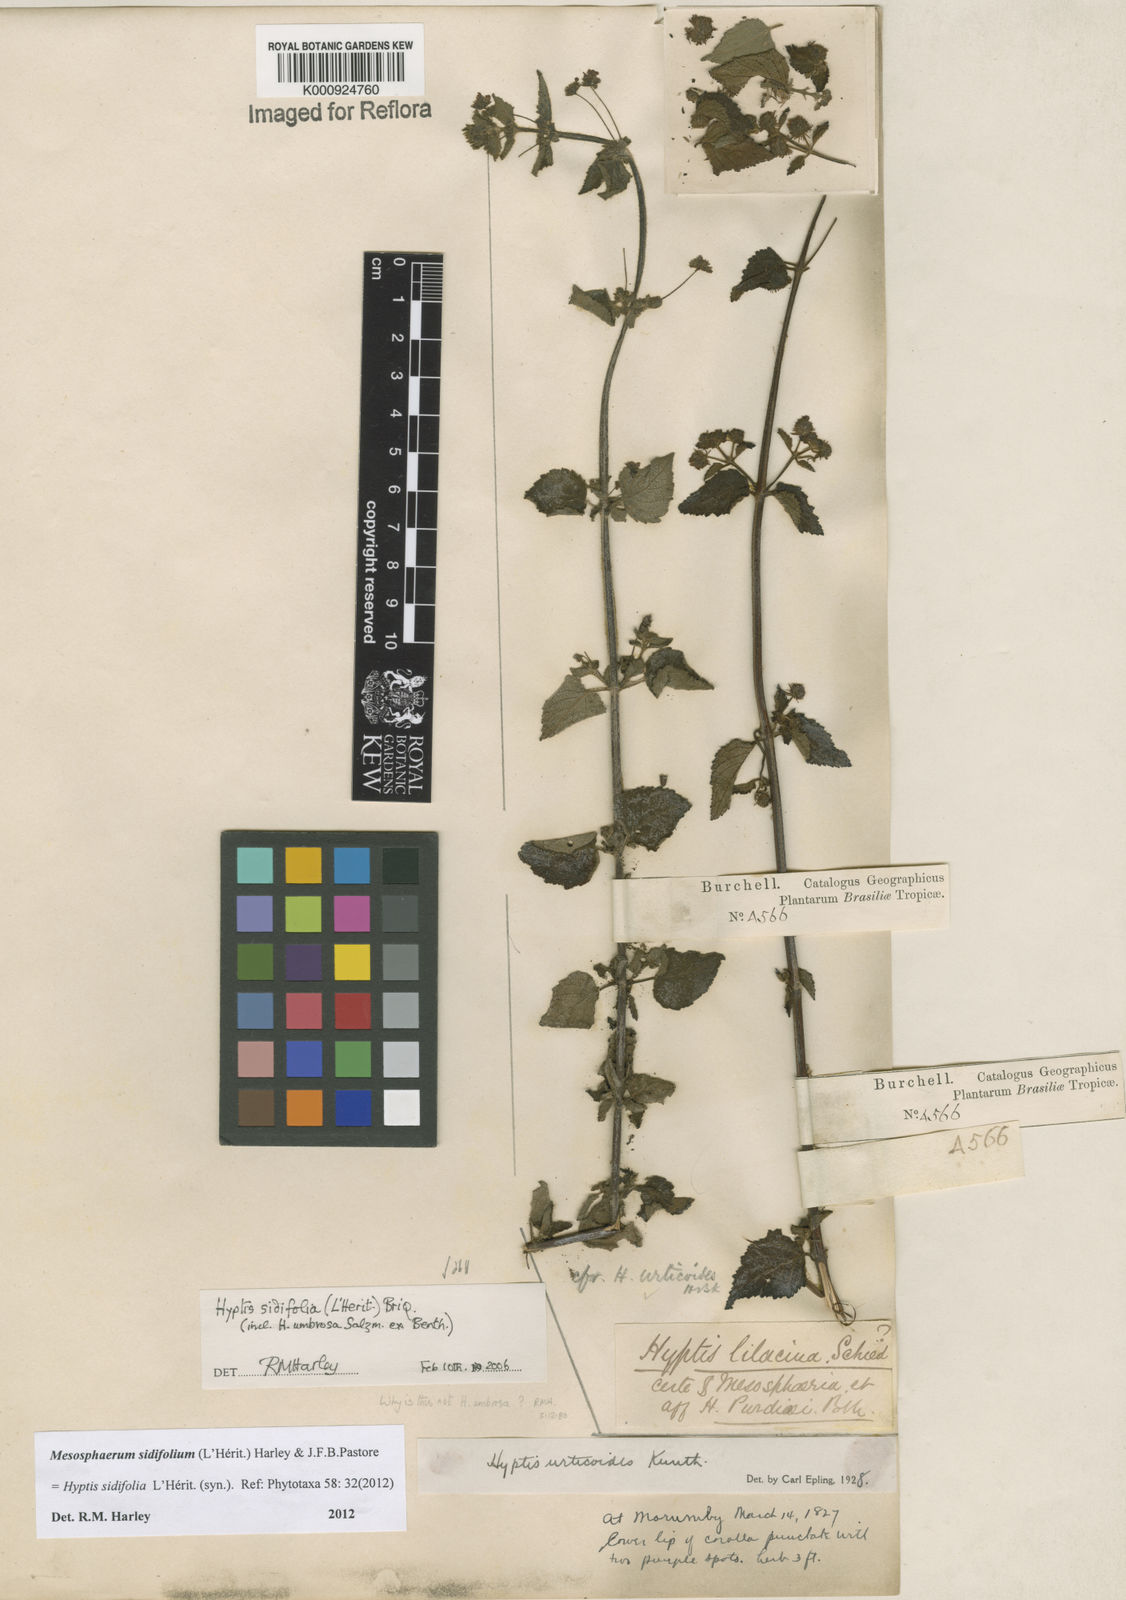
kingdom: Plantae
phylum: Tracheophyta
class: Magnoliopsida
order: Lamiales
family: Lamiaceae
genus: Mesosphaerum
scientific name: Mesosphaerum sidifolium
